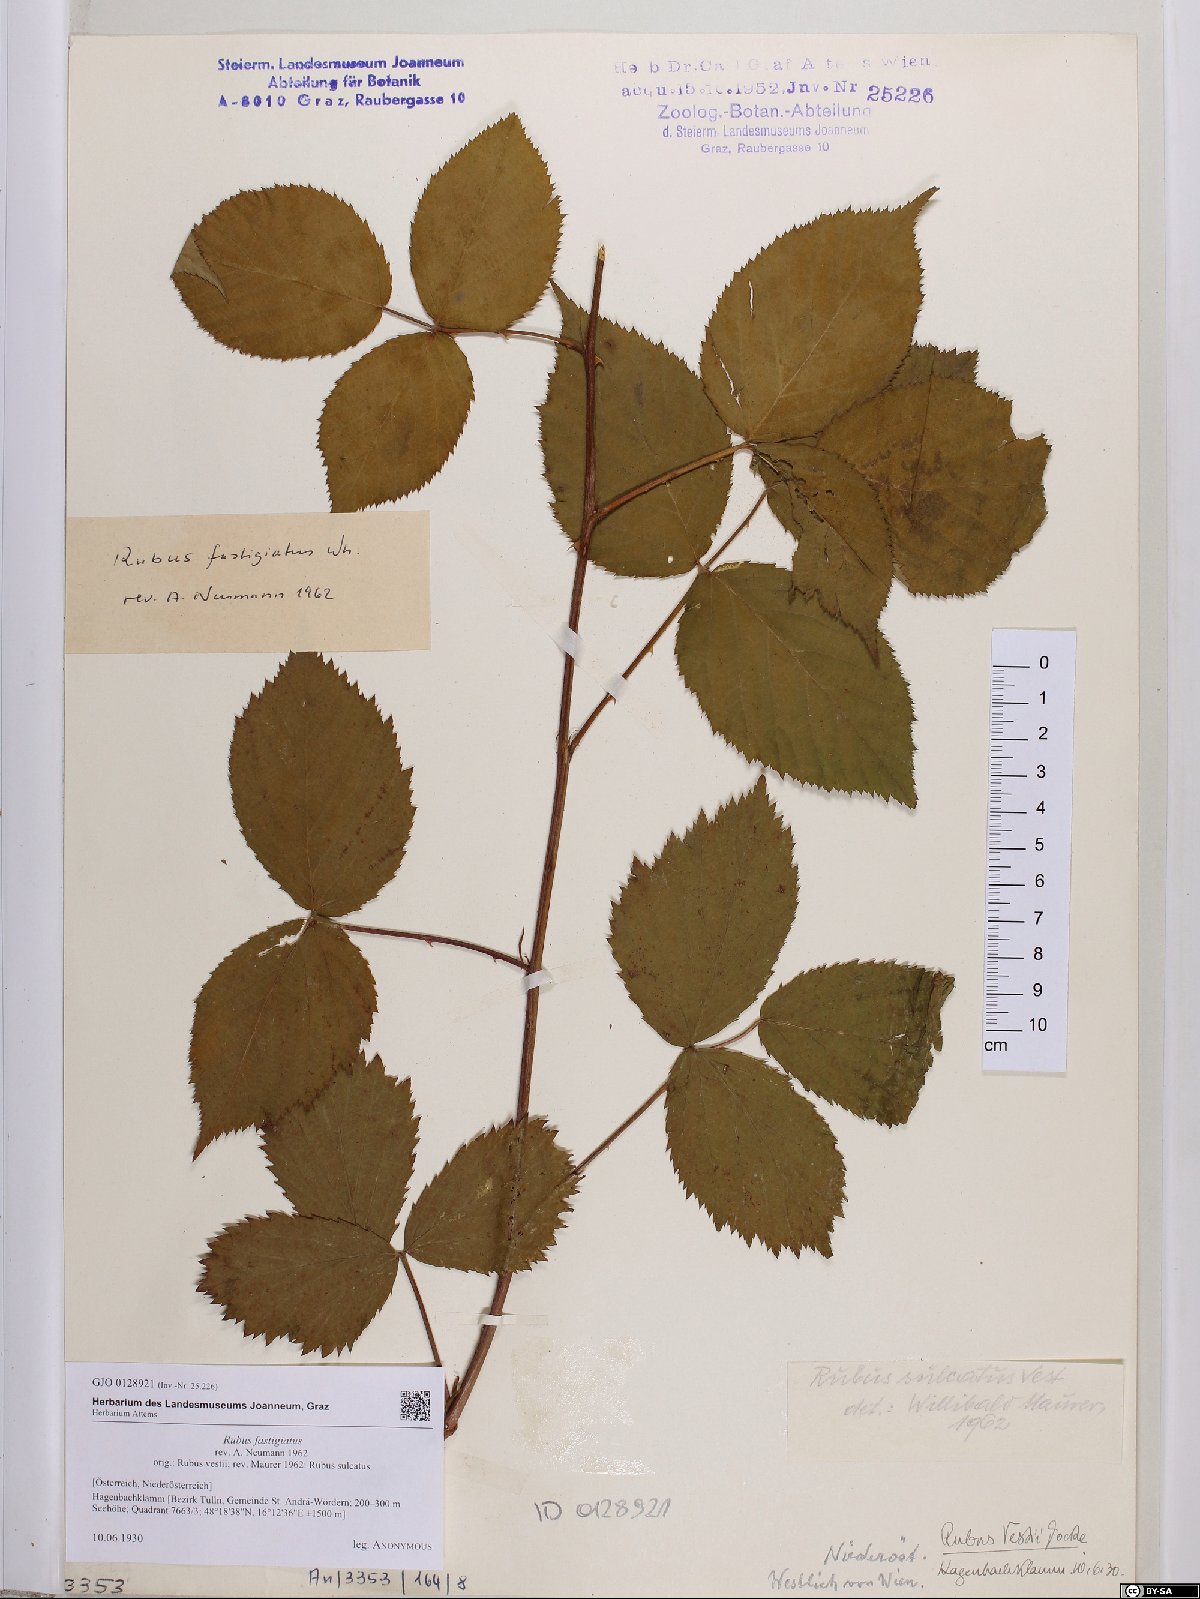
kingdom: Plantae
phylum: Tracheophyta
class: Magnoliopsida
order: Rosales
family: Rosaceae
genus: Rubus
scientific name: Rubus polonicus
